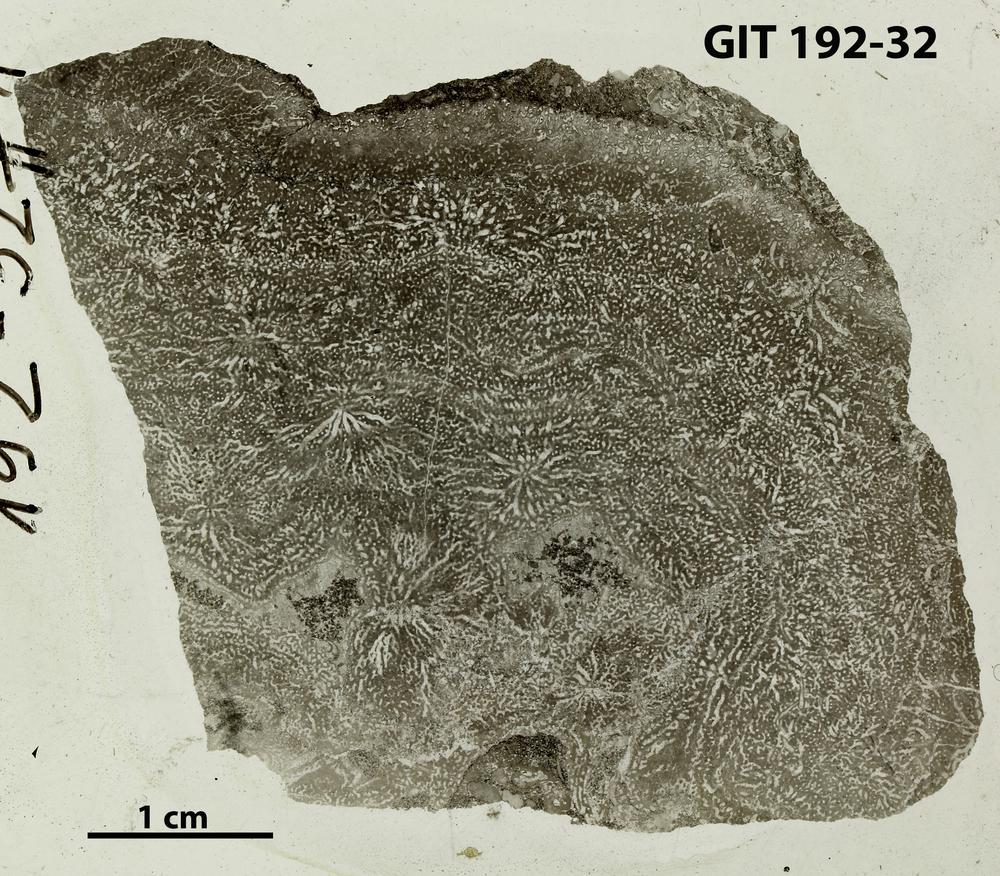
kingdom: Animalia
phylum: Porifera
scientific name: Porifera
